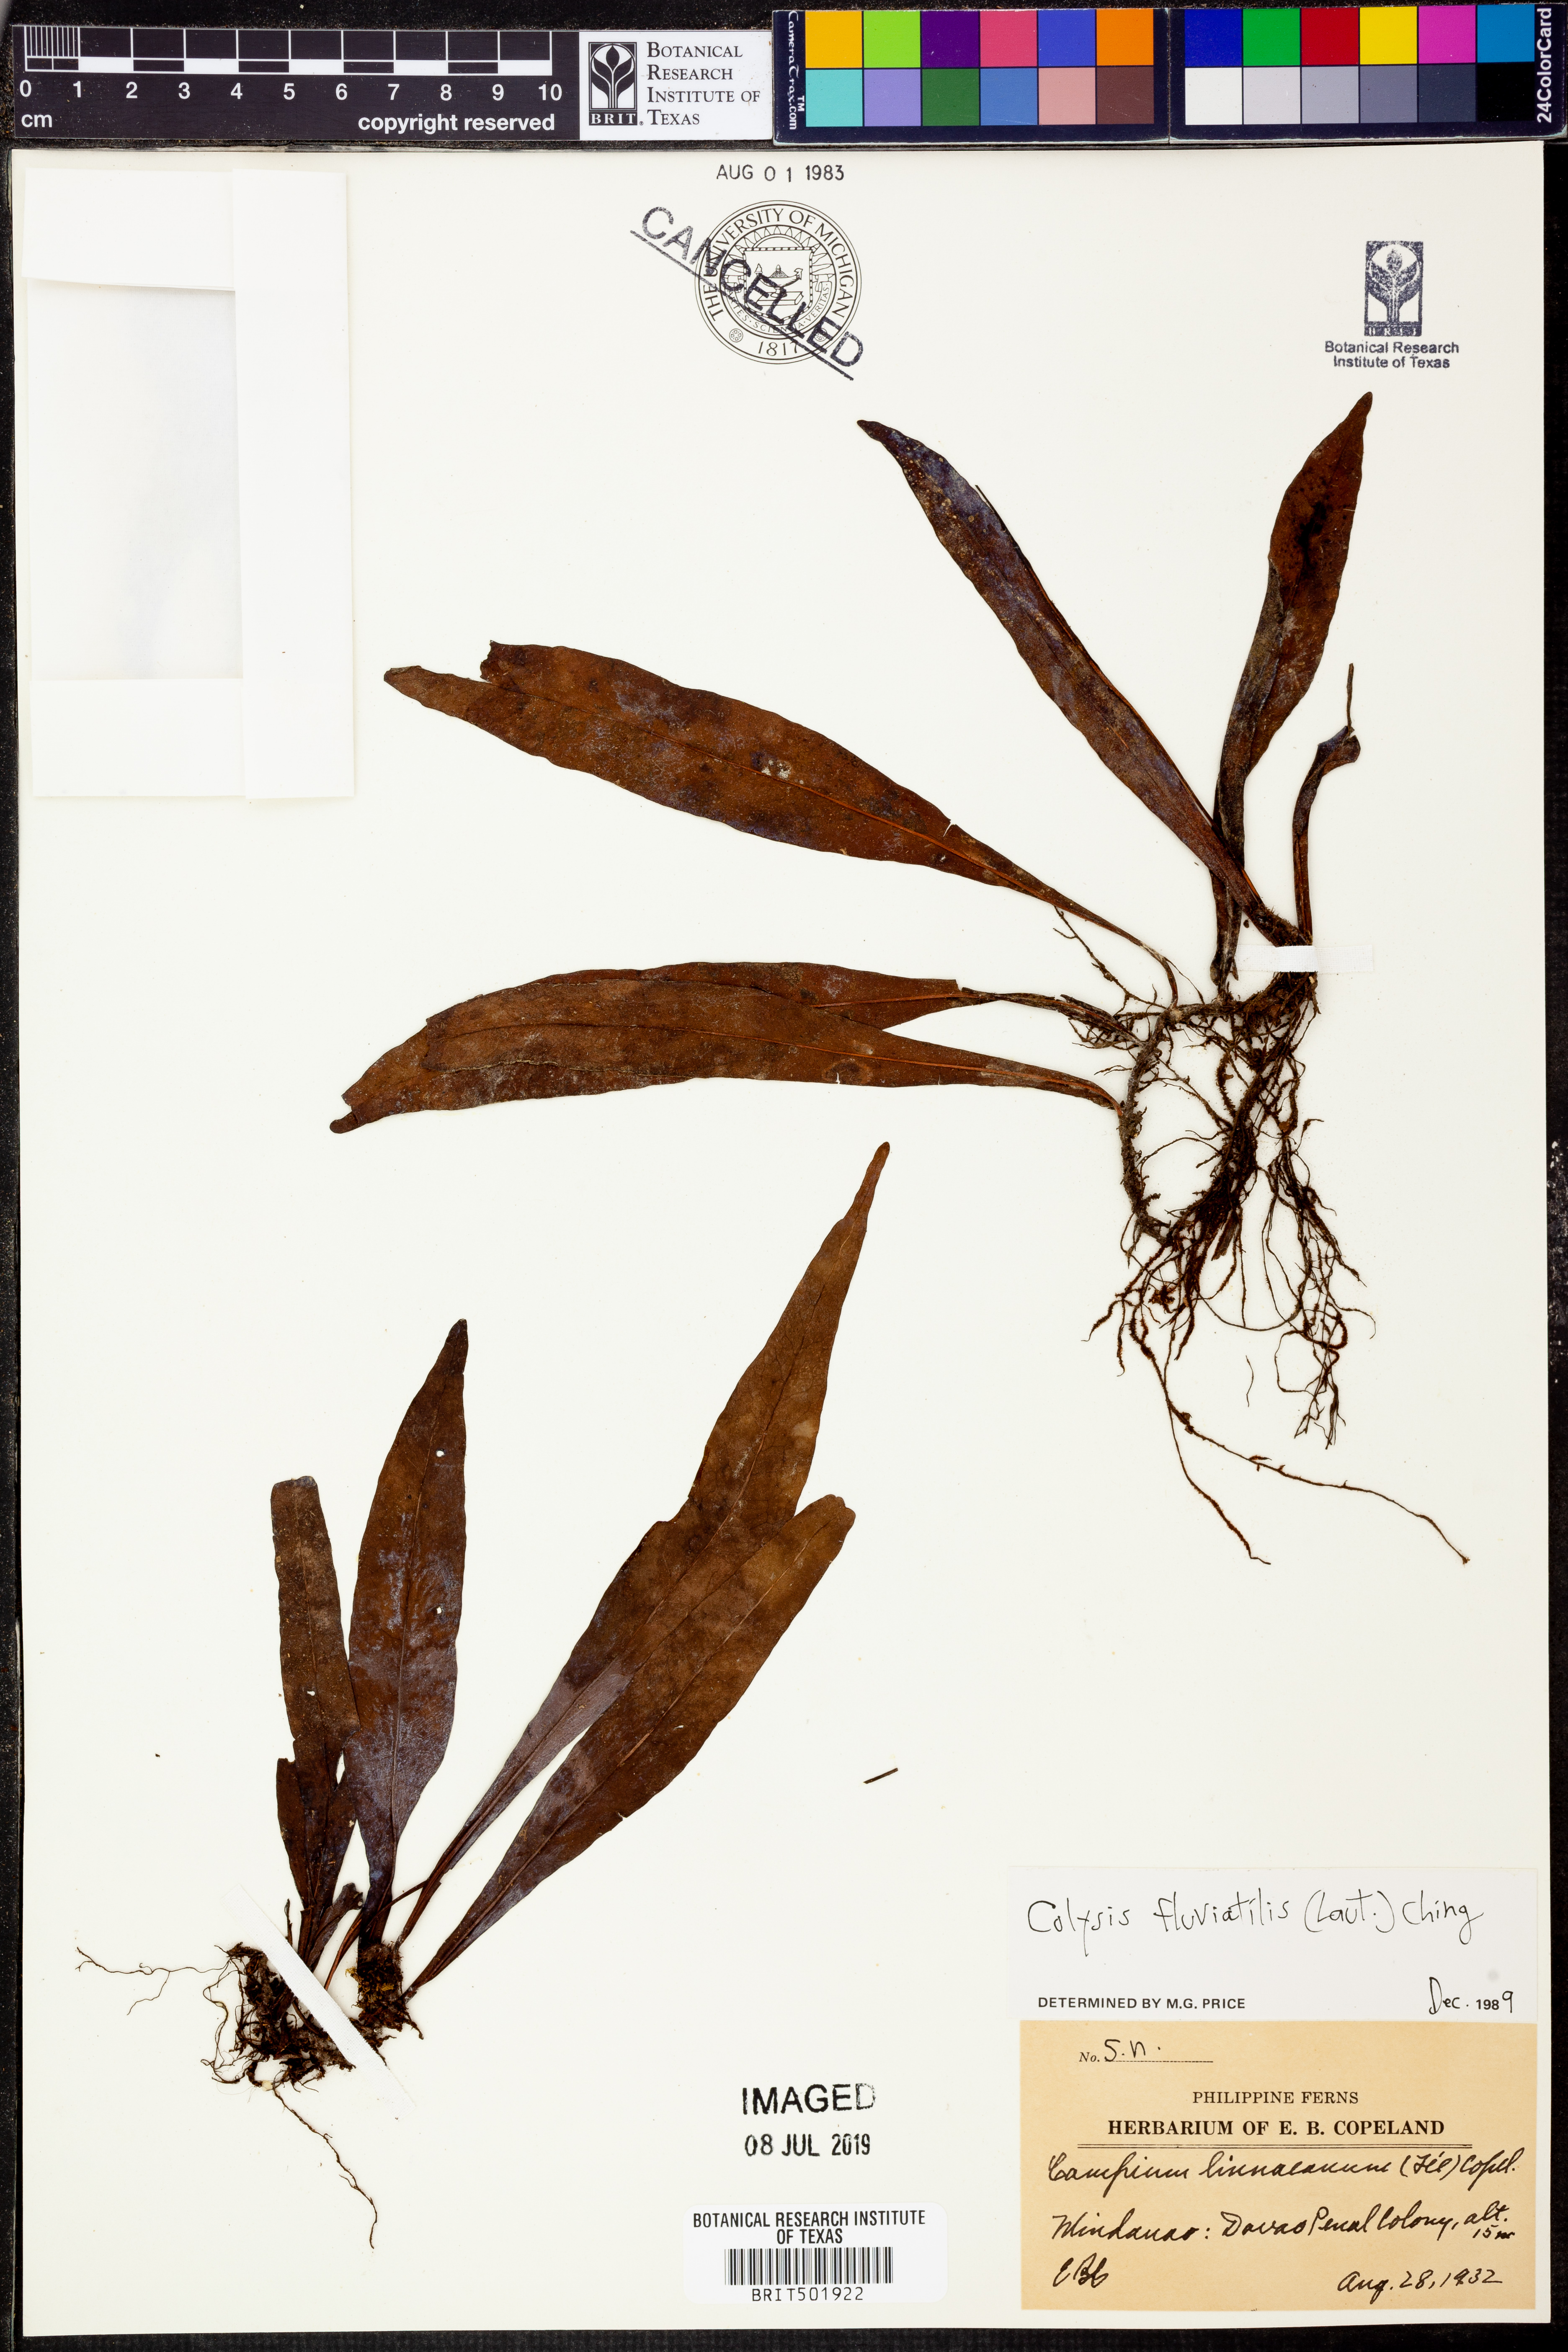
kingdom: Plantae
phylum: Tracheophyta
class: Polypodiopsida
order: Polypodiales
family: Polypodiaceae
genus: Leptochilus
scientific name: Leptochilus sarawakensis
